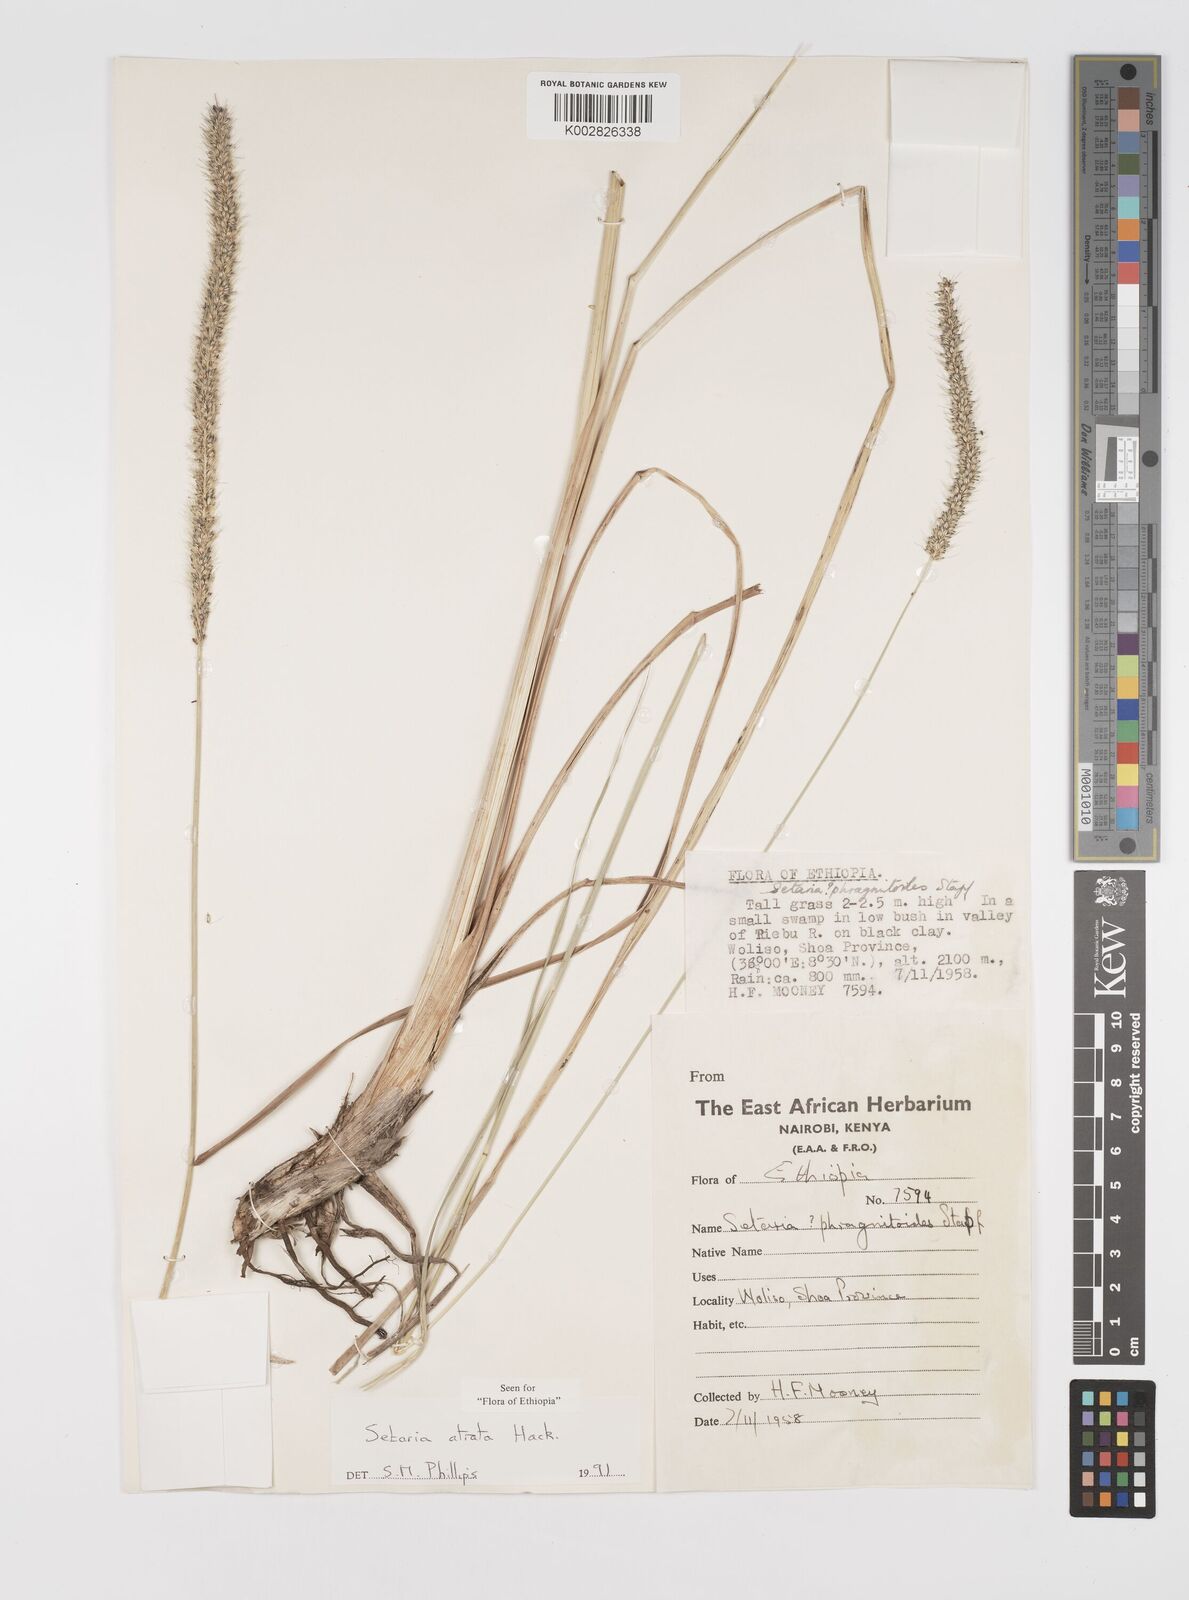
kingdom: Plantae
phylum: Tracheophyta
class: Liliopsida
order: Poales
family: Poaceae
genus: Setaria
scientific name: Setaria atrata
